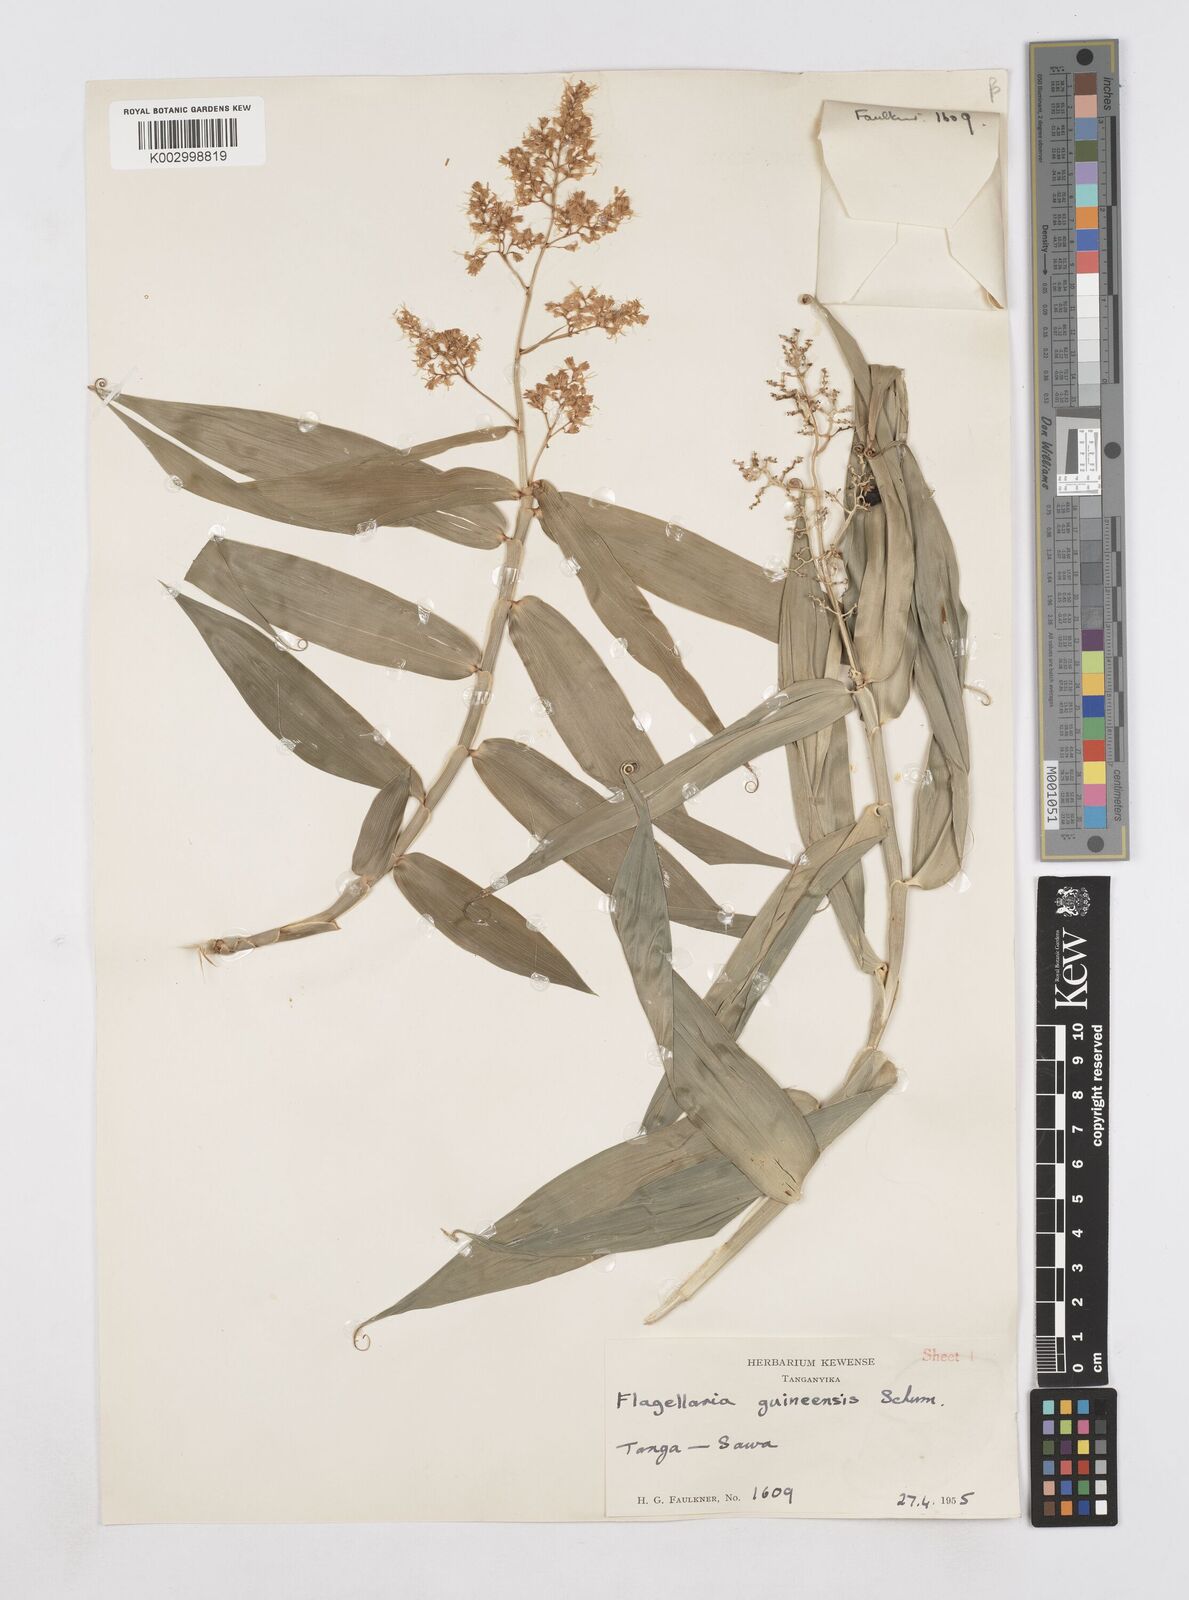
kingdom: Plantae
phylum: Tracheophyta
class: Liliopsida
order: Poales
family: Flagellariaceae
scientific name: Flagellariaceae
